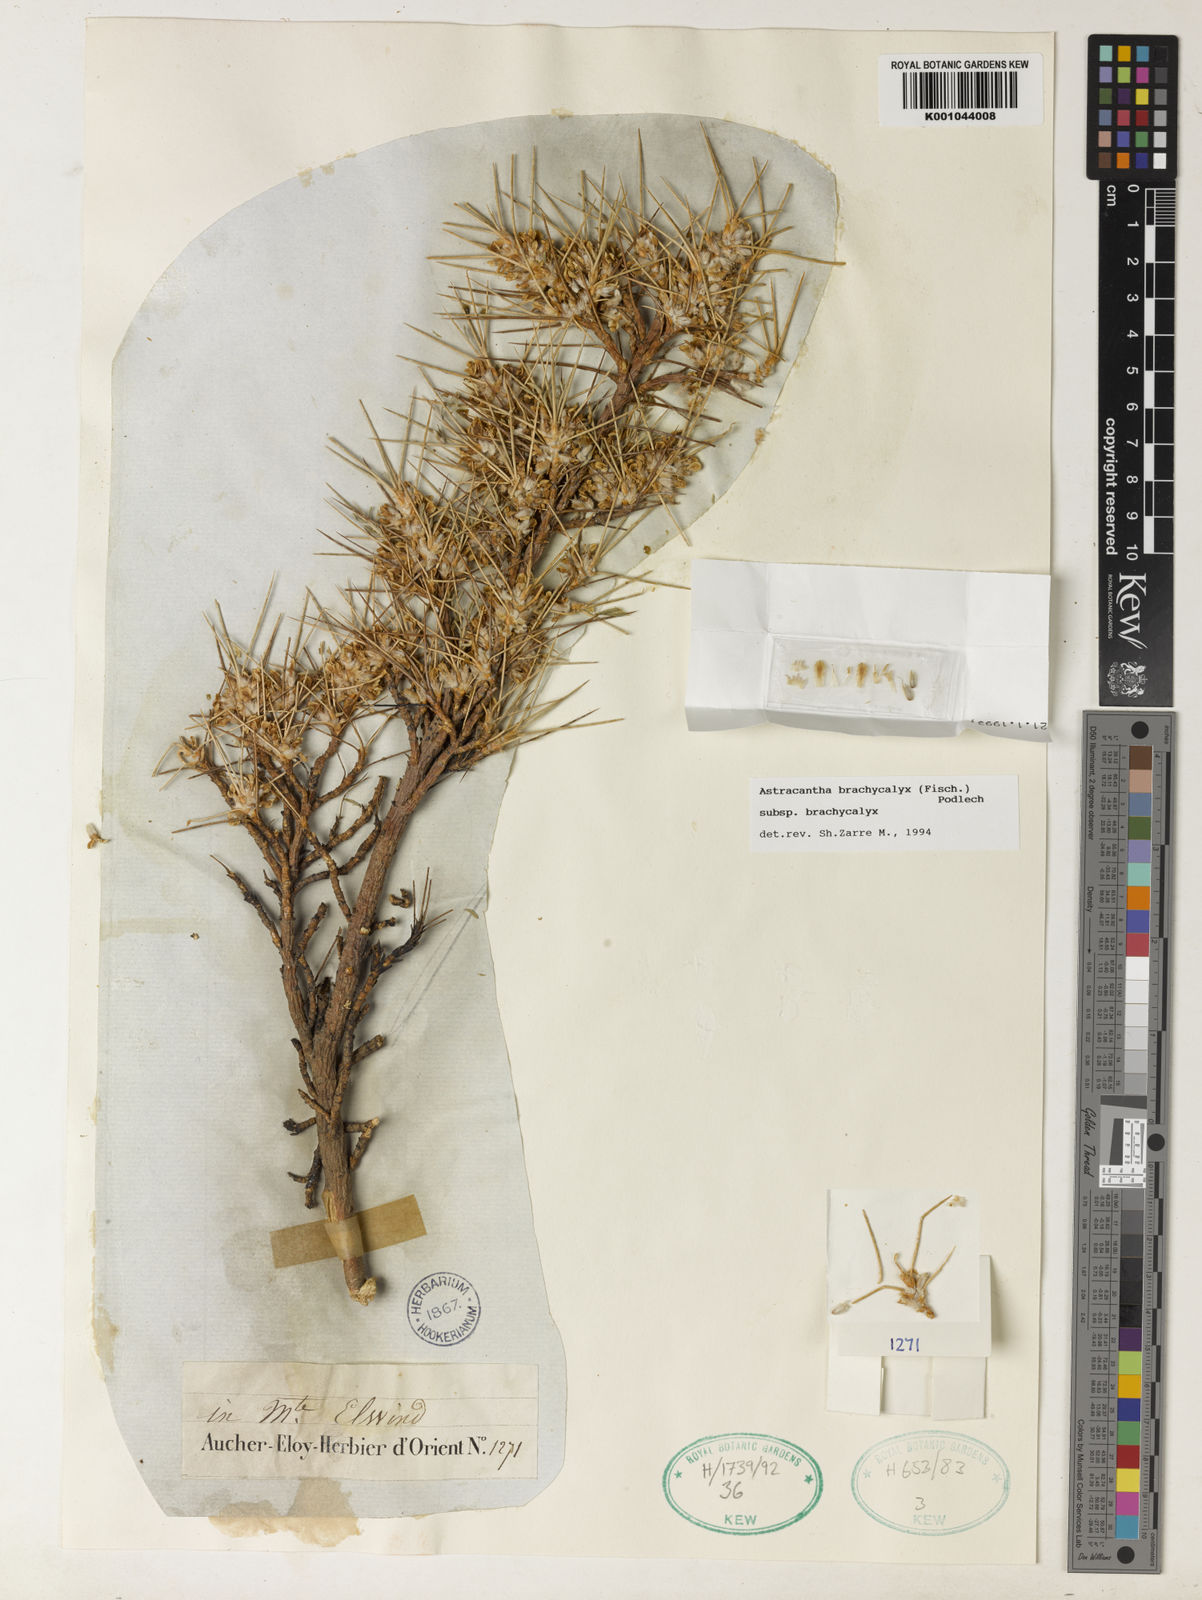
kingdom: Plantae
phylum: Tracheophyta
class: Magnoliopsida
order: Fabales
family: Fabaceae
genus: Astragalus
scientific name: Astragalus brachycalyx
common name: Persian manna
